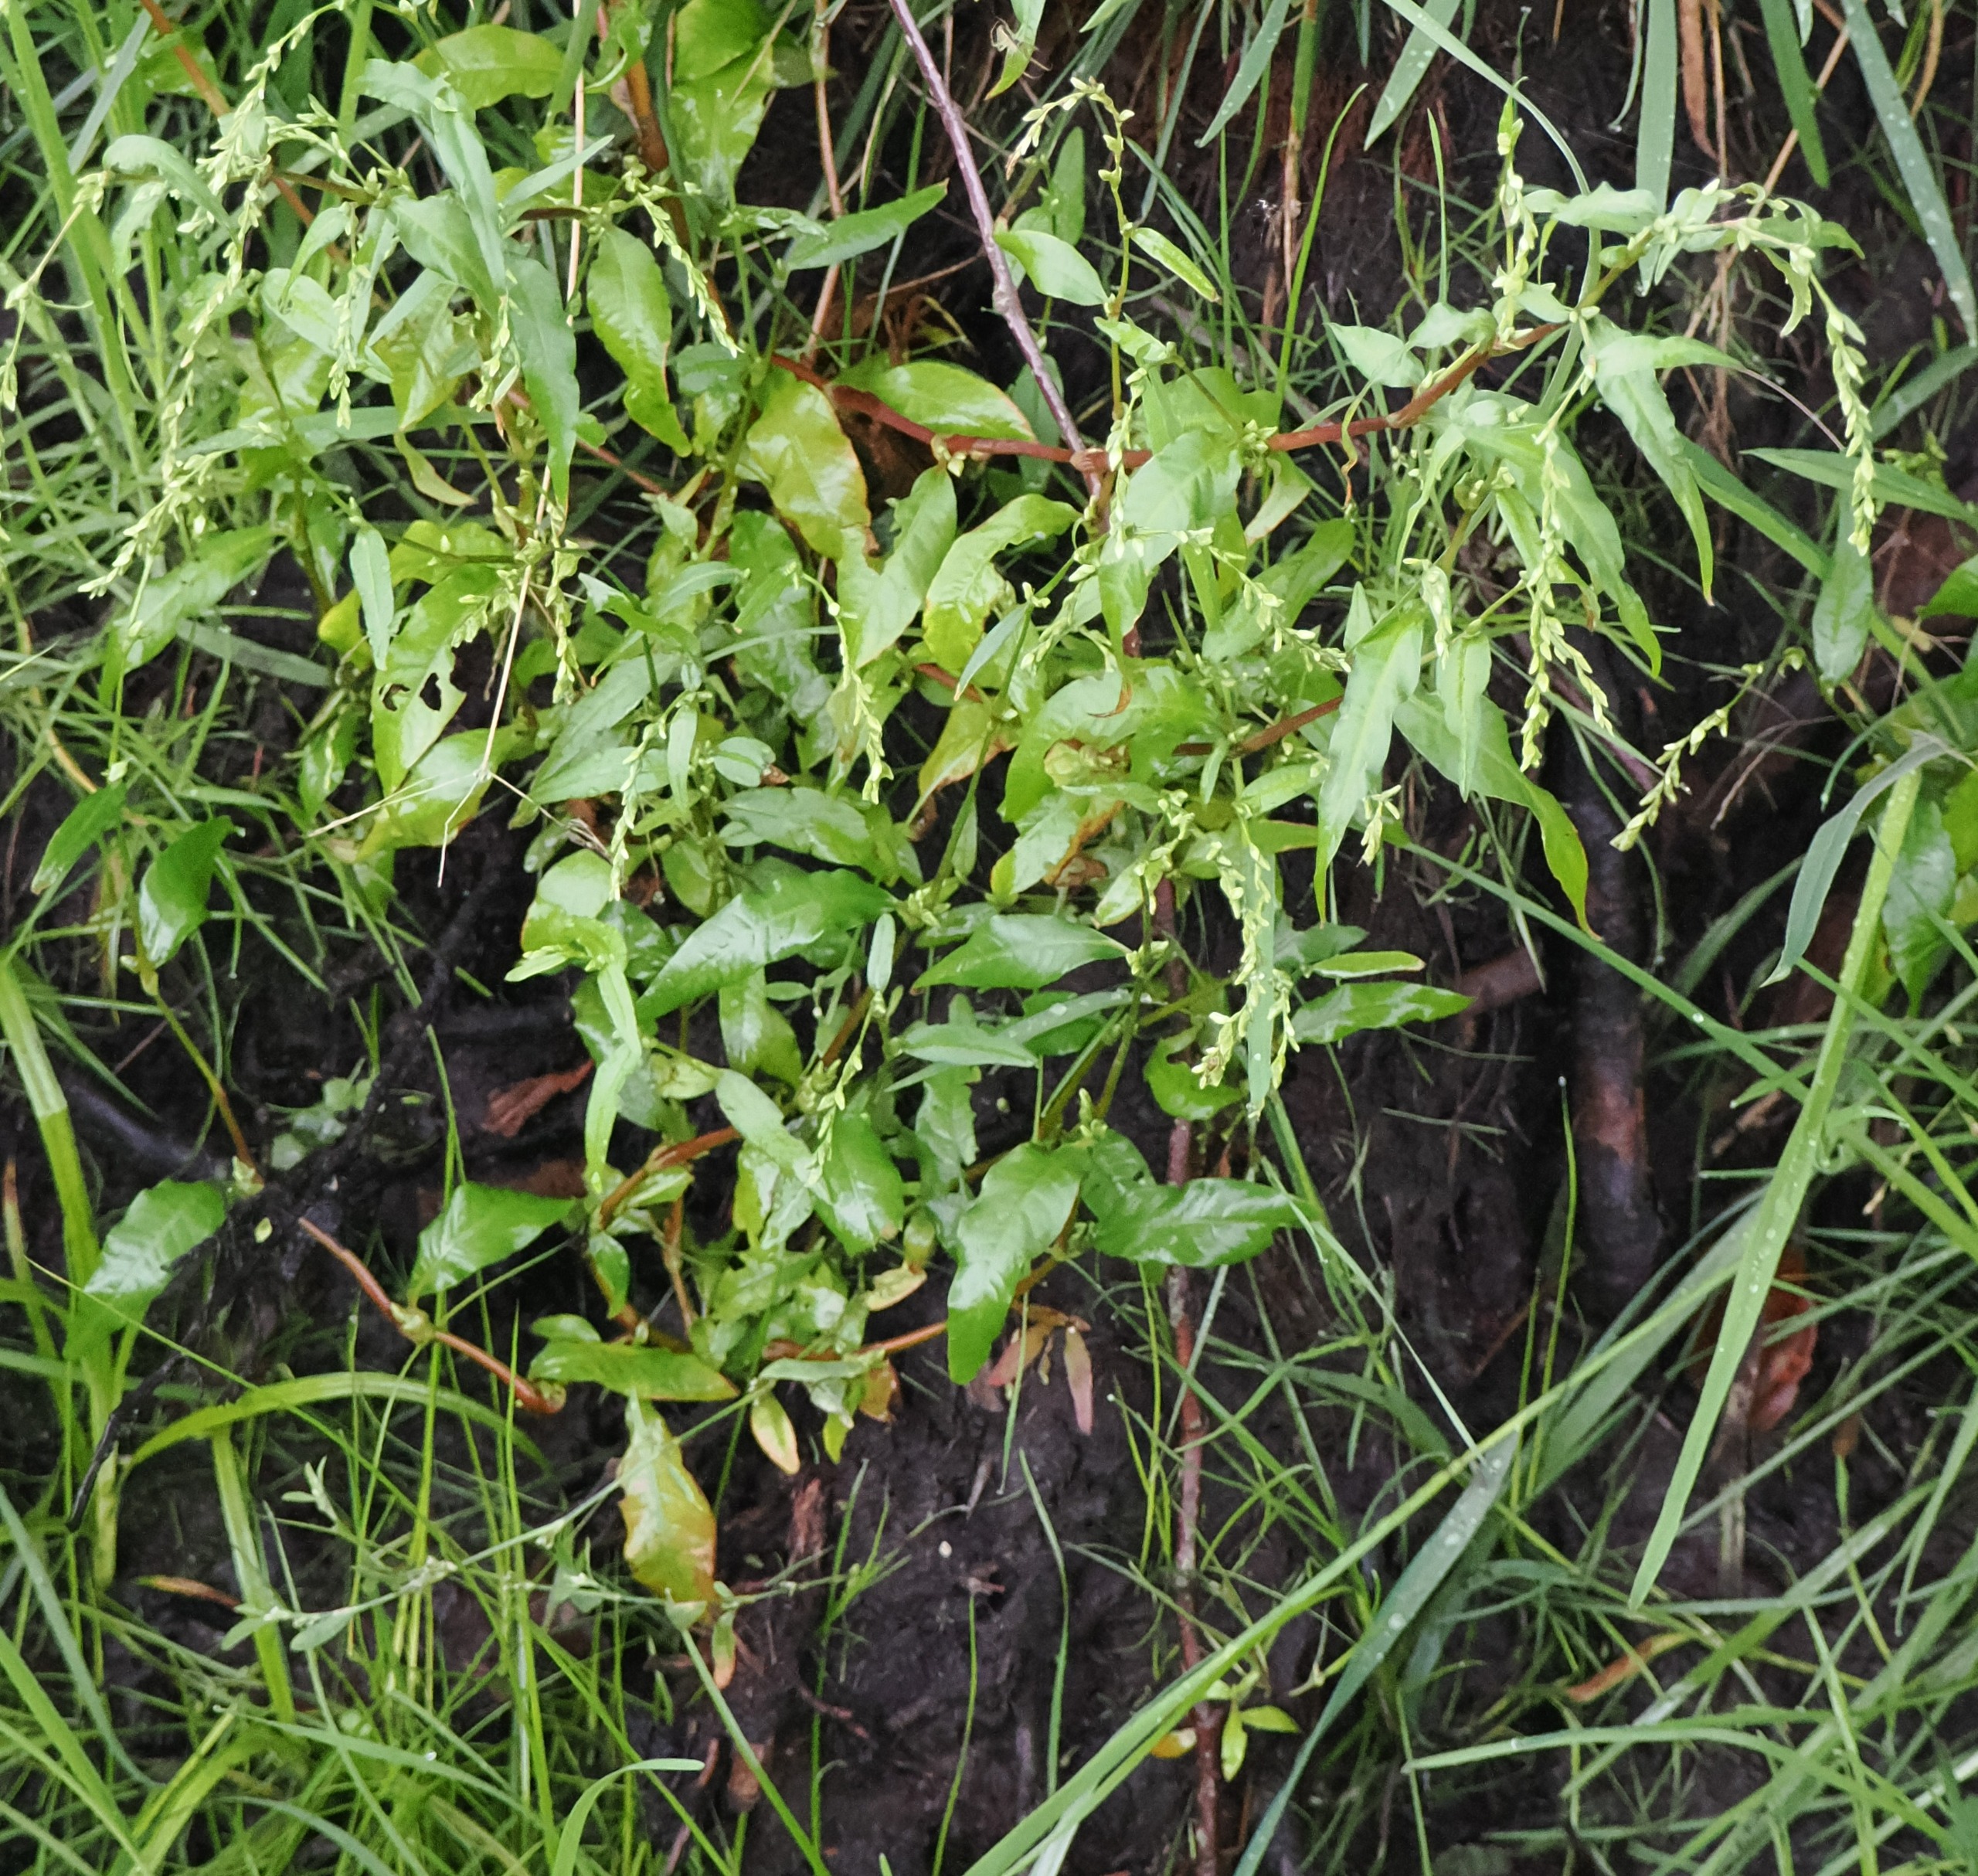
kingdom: Plantae
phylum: Tracheophyta
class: Magnoliopsida
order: Caryophyllales
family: Polygonaceae
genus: Persicaria
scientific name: Persicaria hydropiper
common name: Bidende pileurt
